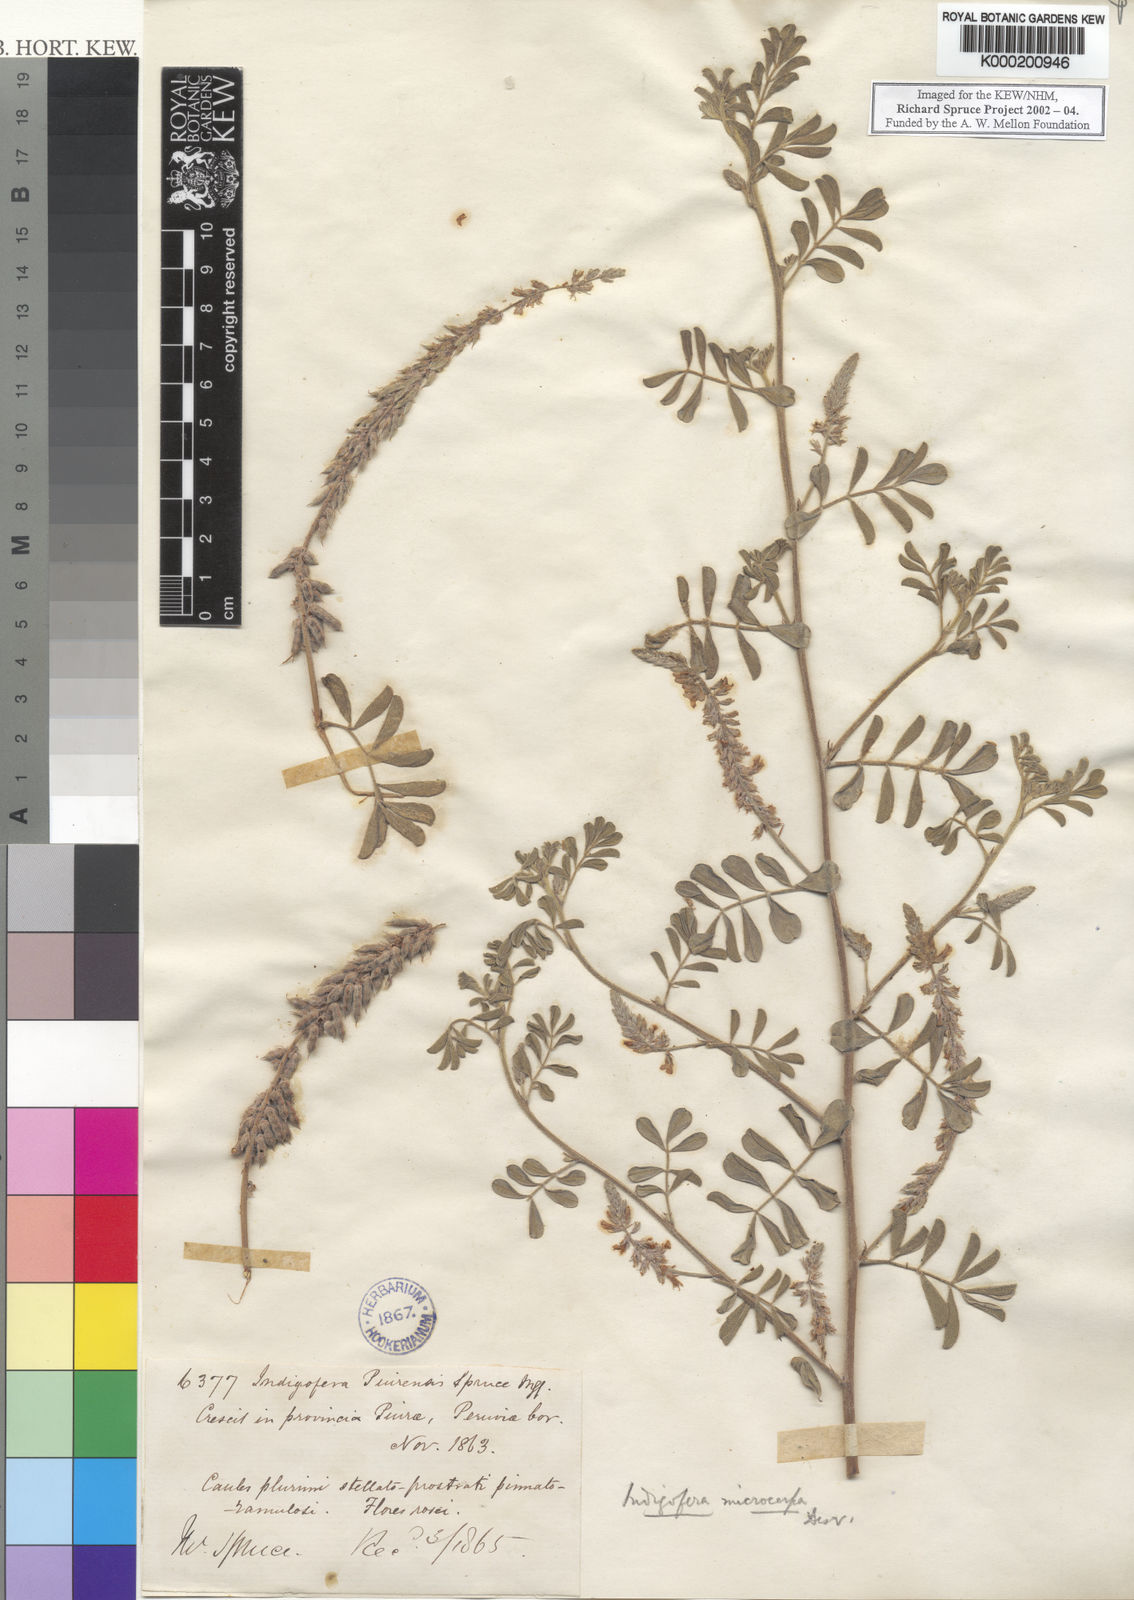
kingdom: Plantae
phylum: Tracheophyta
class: Magnoliopsida
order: Fabales
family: Fabaceae
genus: Indigofera
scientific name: Indigofera microcarpa
